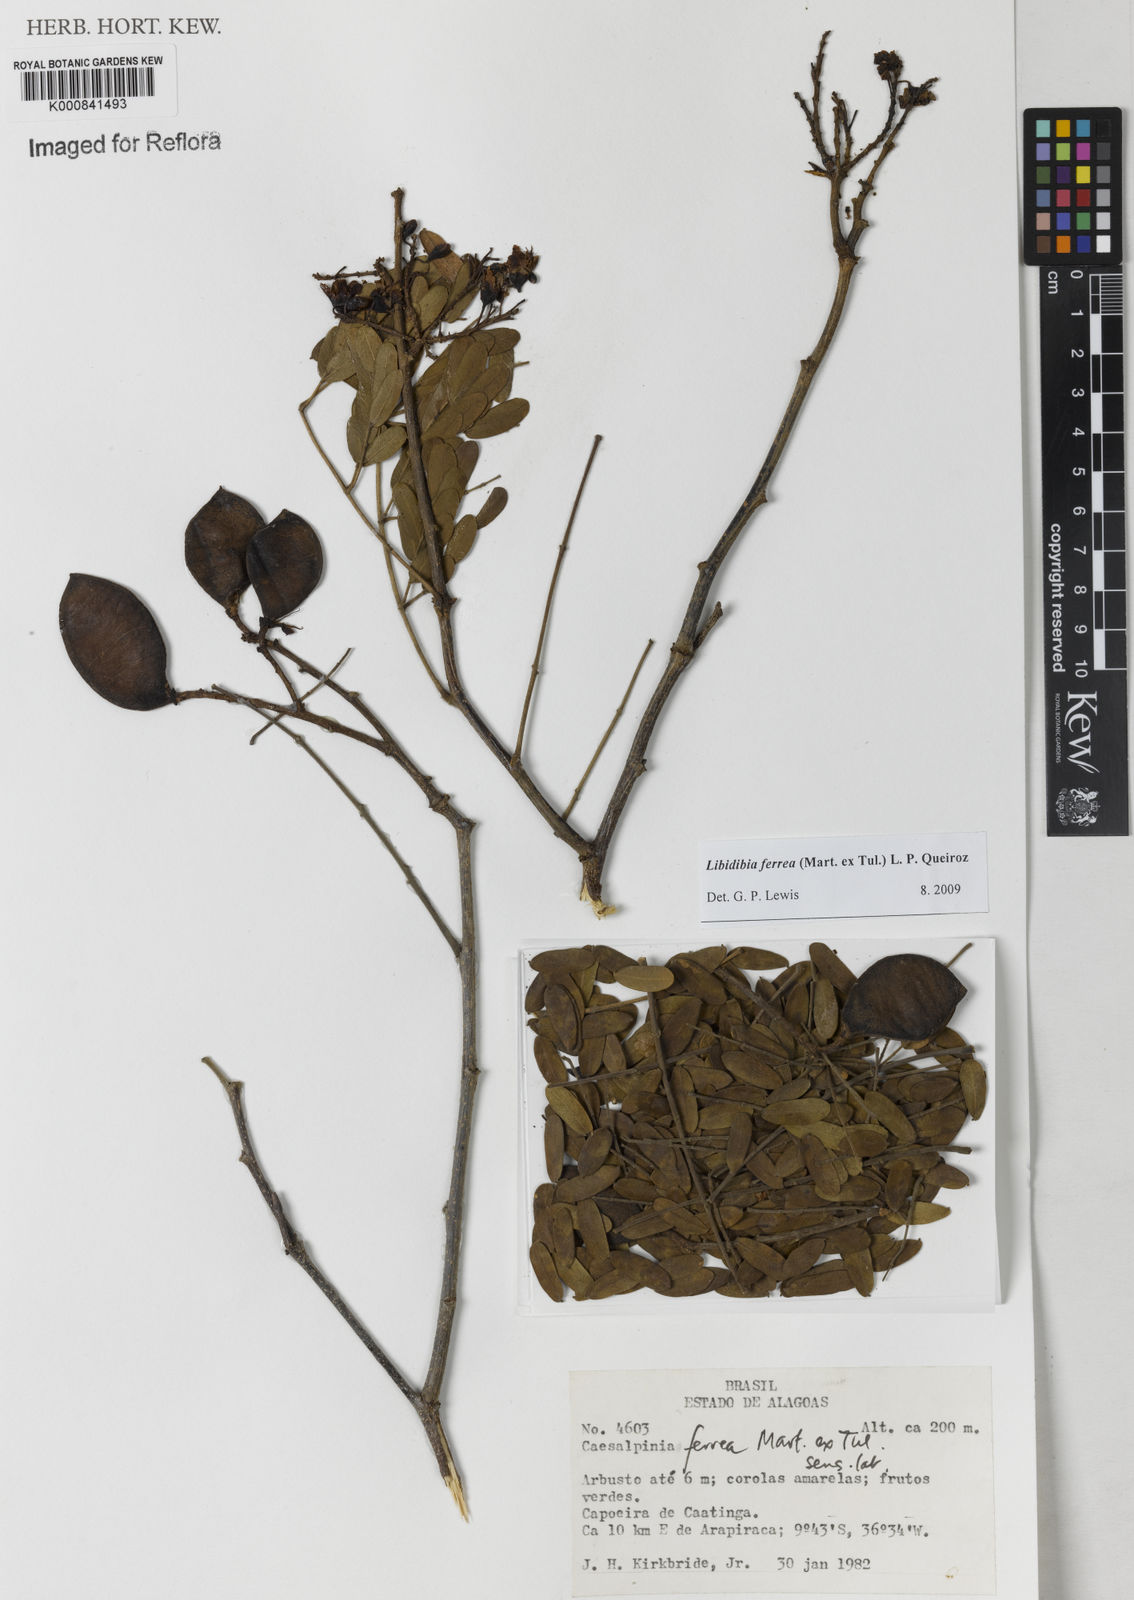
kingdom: Plantae
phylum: Tracheophyta
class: Magnoliopsida
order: Fabales
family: Fabaceae
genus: Libidibia
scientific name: Libidibia ferrea
